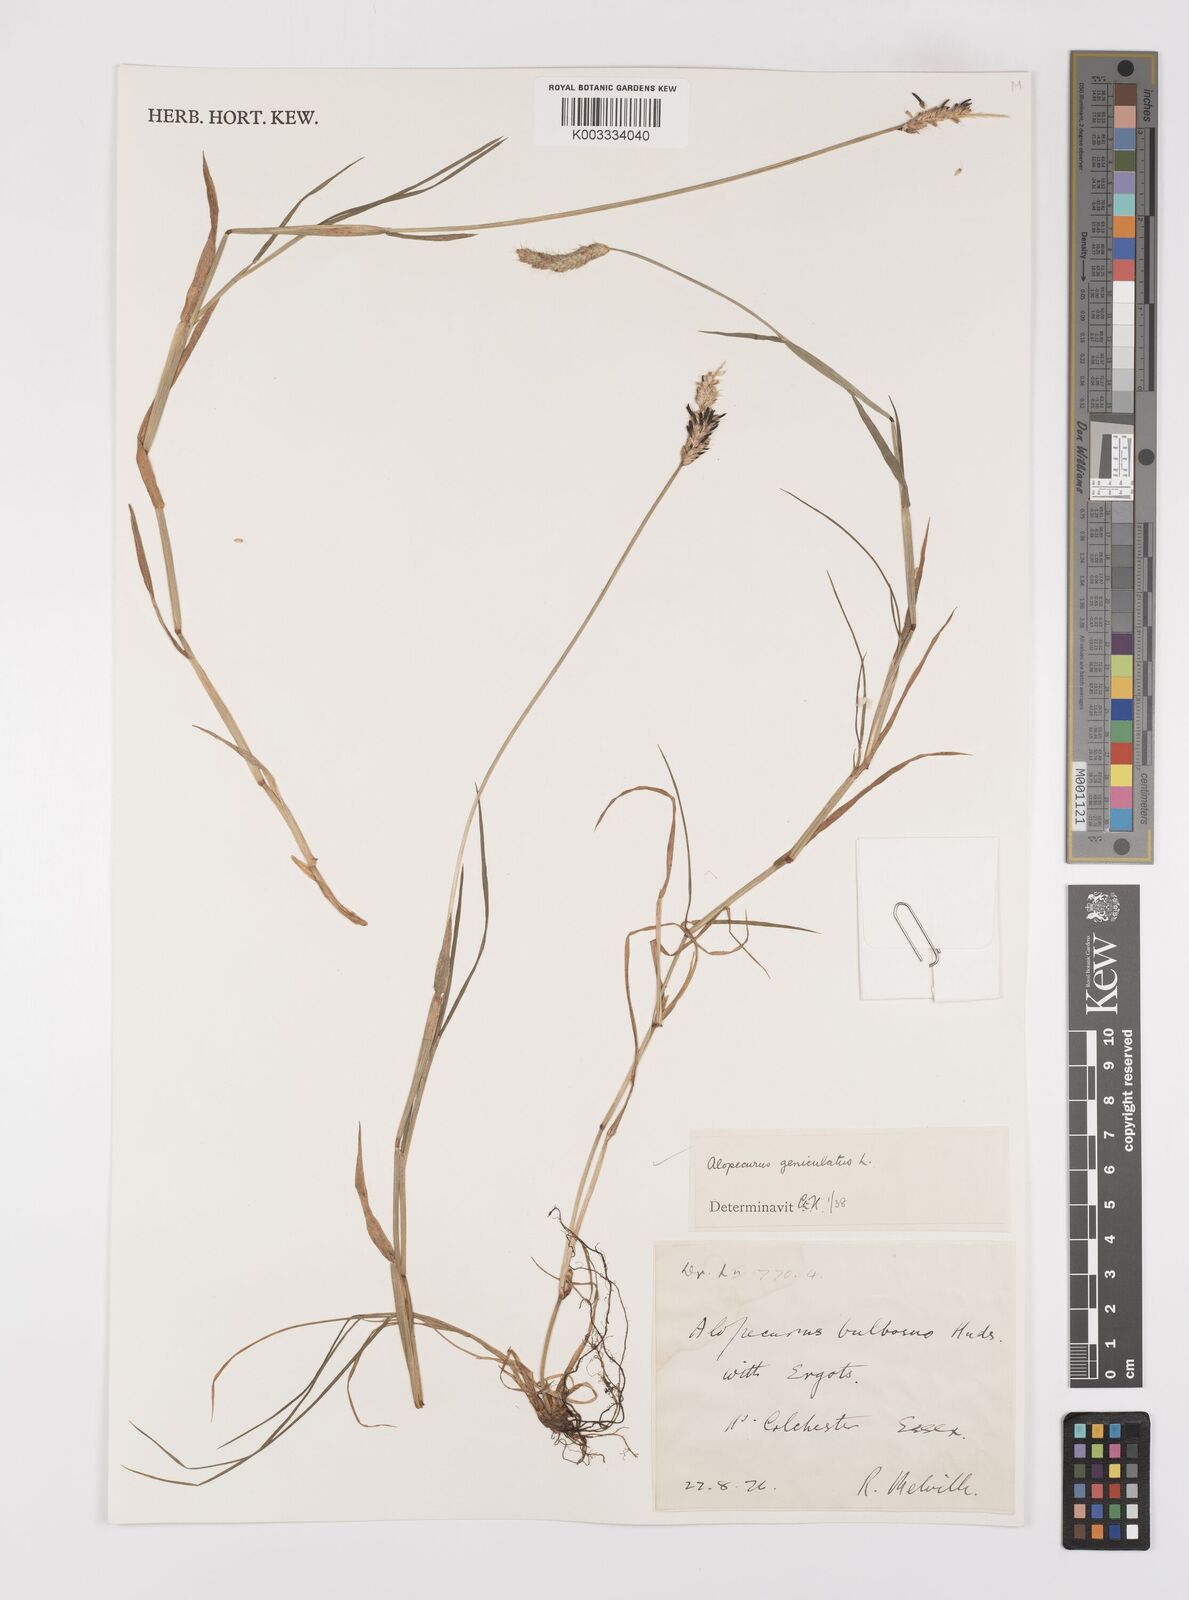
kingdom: Plantae
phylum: Tracheophyta
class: Liliopsida
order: Poales
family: Poaceae
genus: Alopecurus
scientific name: Alopecurus geniculatus
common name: Water foxtail
